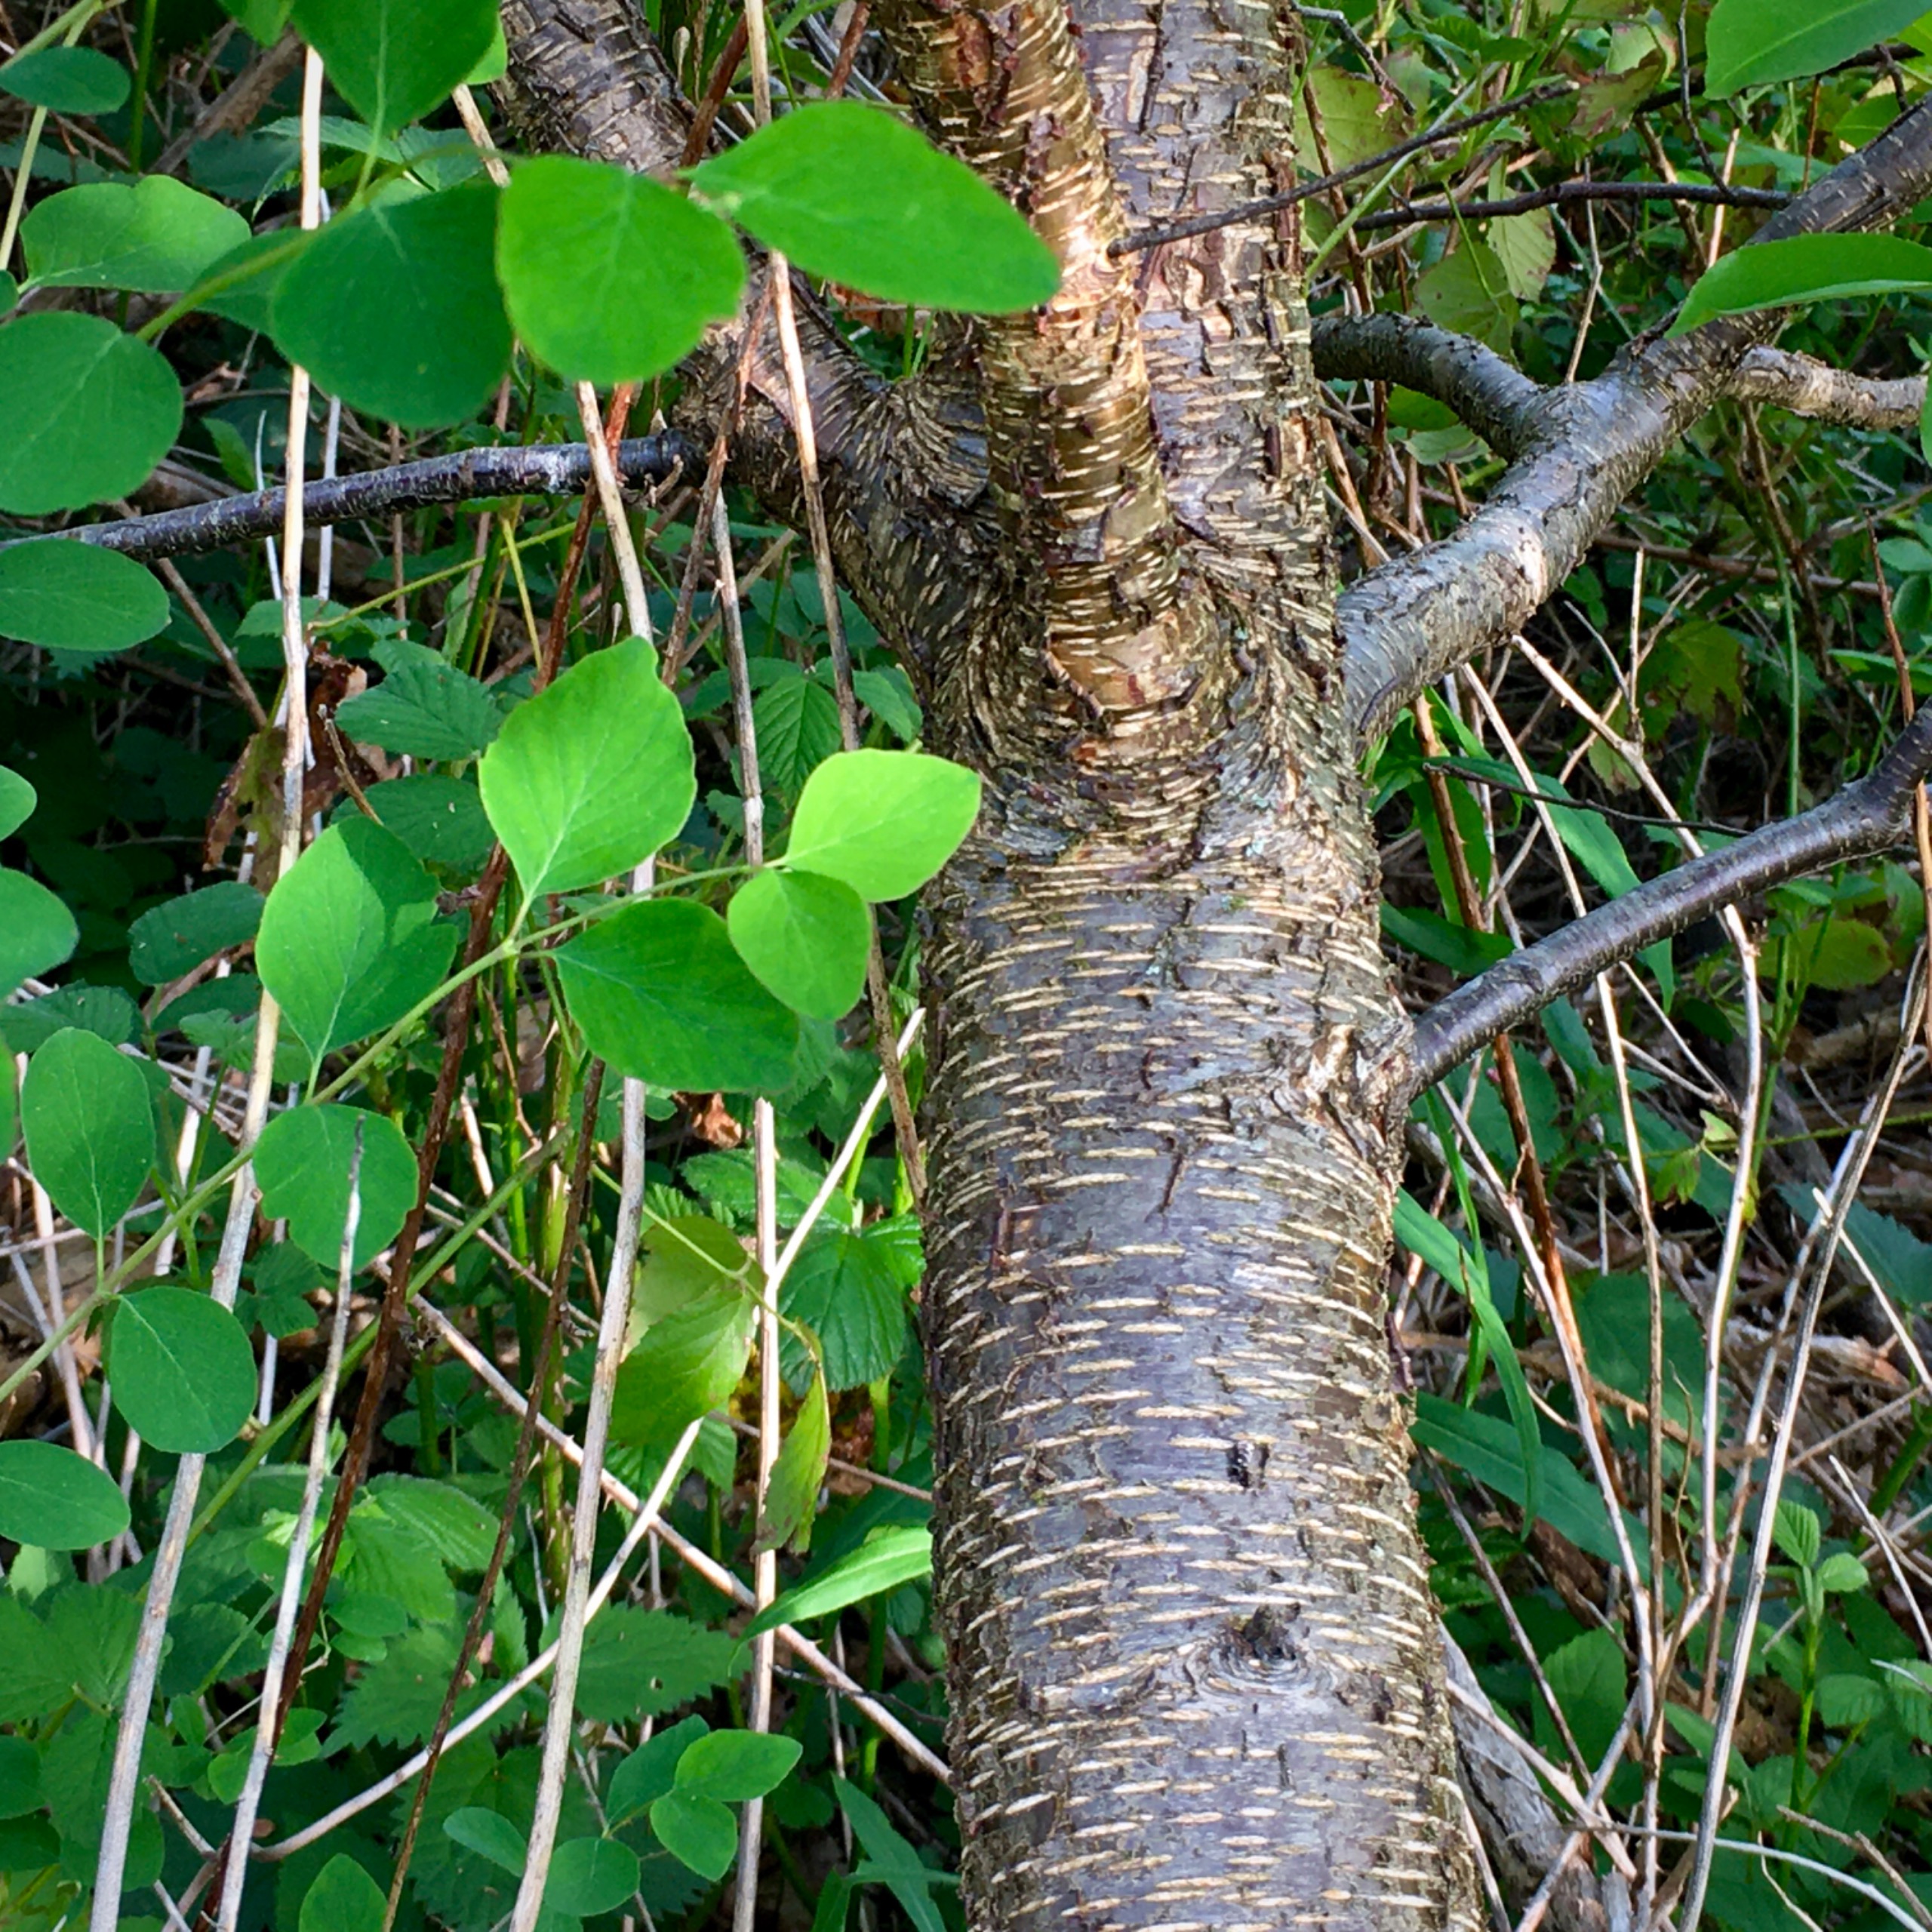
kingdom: Plantae
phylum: Tracheophyta
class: Magnoliopsida
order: Rosales
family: Rosaceae
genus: Prunus
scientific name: Prunus serotina
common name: Glansbladet hæg
